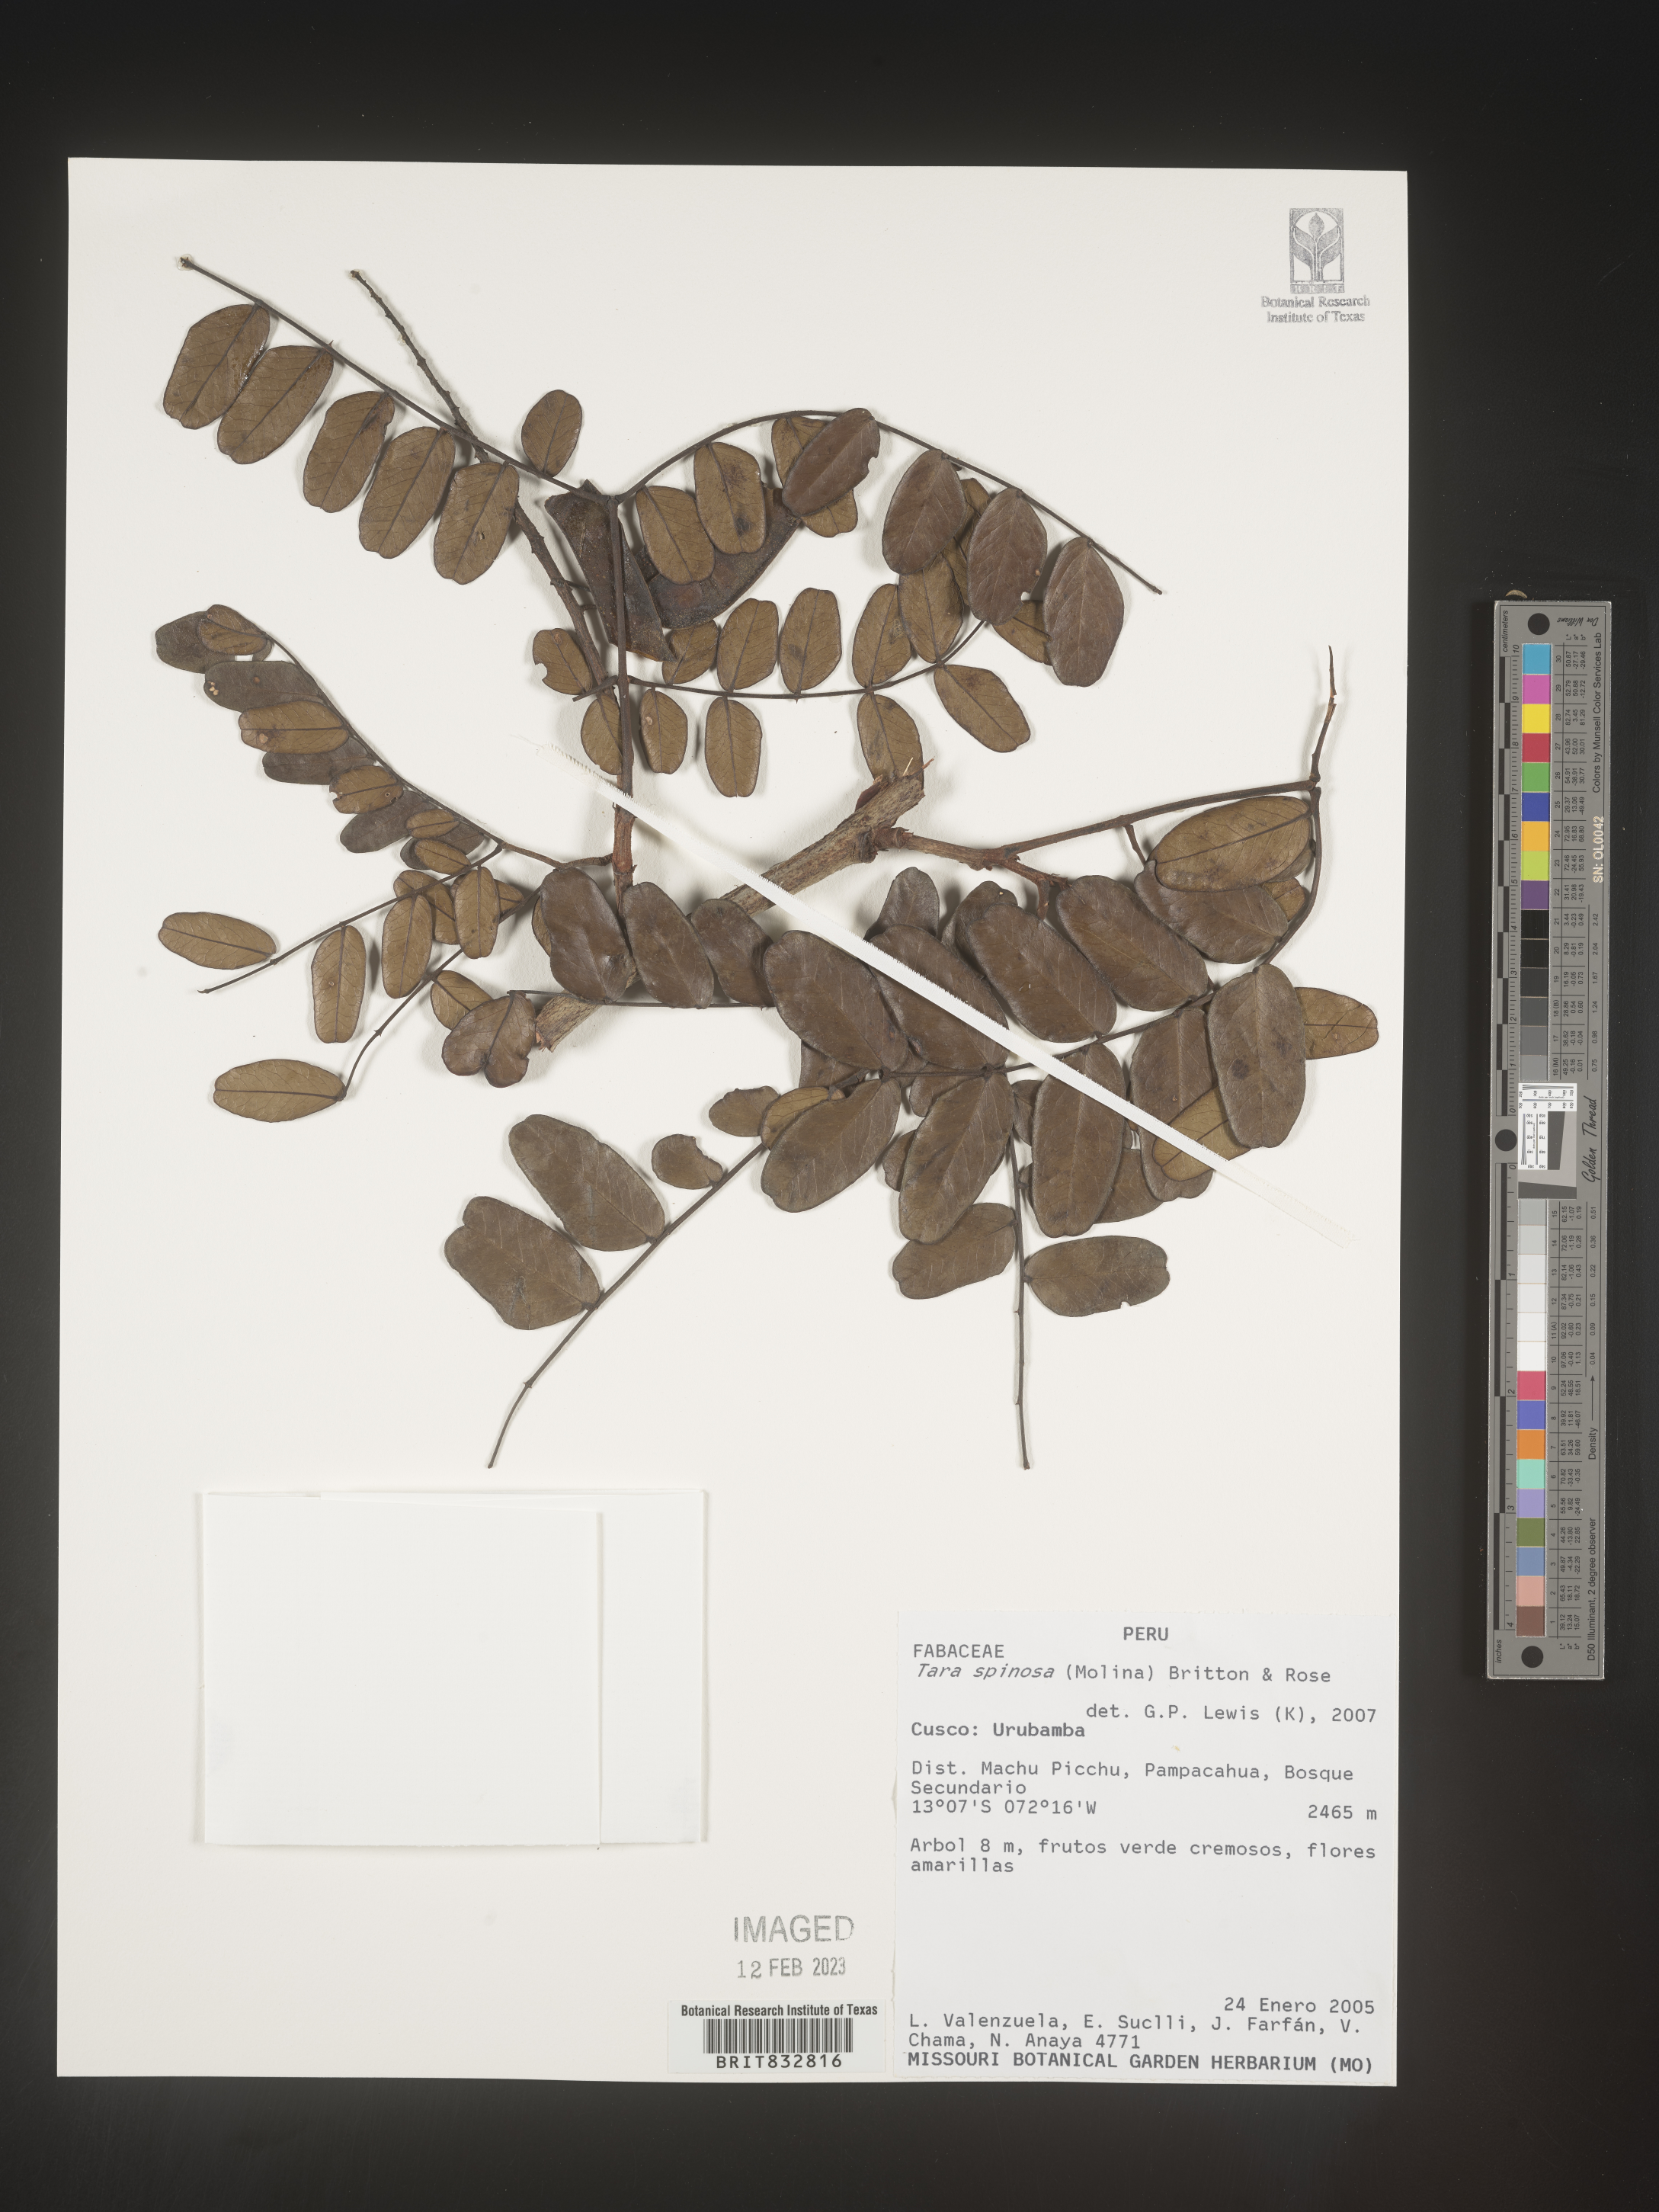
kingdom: Plantae
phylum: Tracheophyta
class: Magnoliopsida
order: Fabales
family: Fabaceae
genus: Tara
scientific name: Tara
